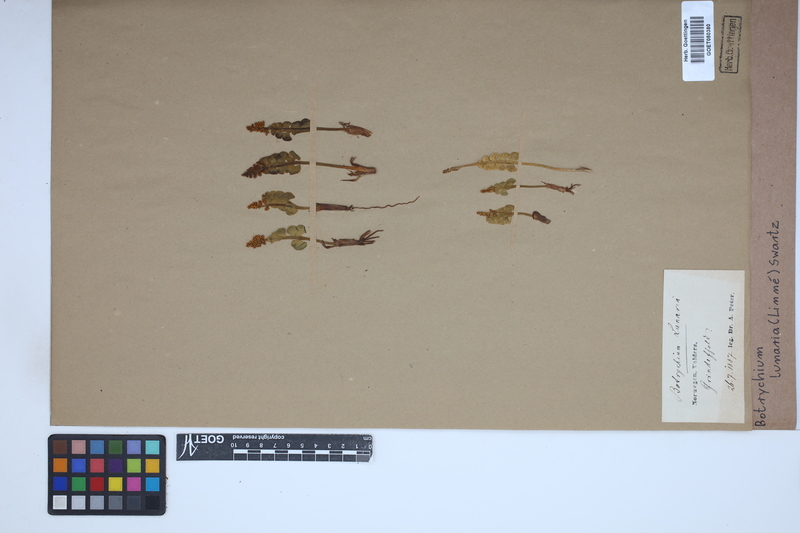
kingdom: Plantae
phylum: Tracheophyta
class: Polypodiopsida
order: Ophioglossales
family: Ophioglossaceae
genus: Botrychium
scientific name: Botrychium lunaria
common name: Moonwort
